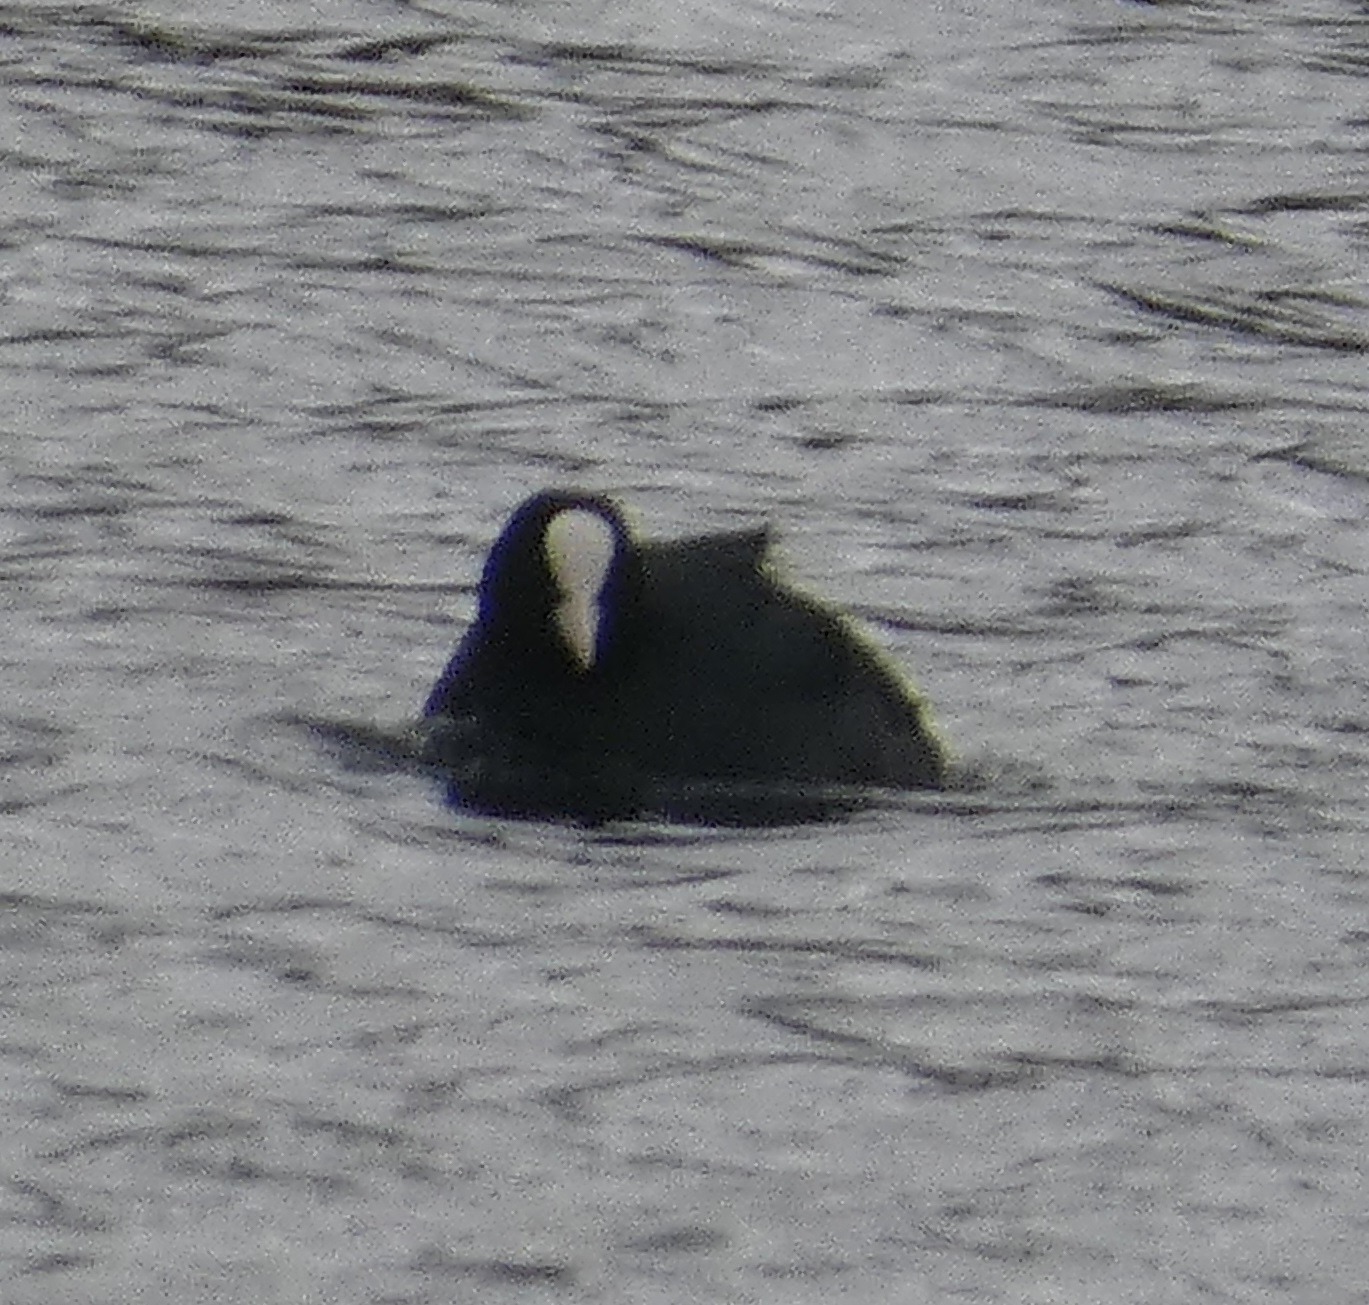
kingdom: Animalia
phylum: Chordata
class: Aves
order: Gruiformes
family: Rallidae
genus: Fulica
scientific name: Fulica atra
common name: Blishøne
